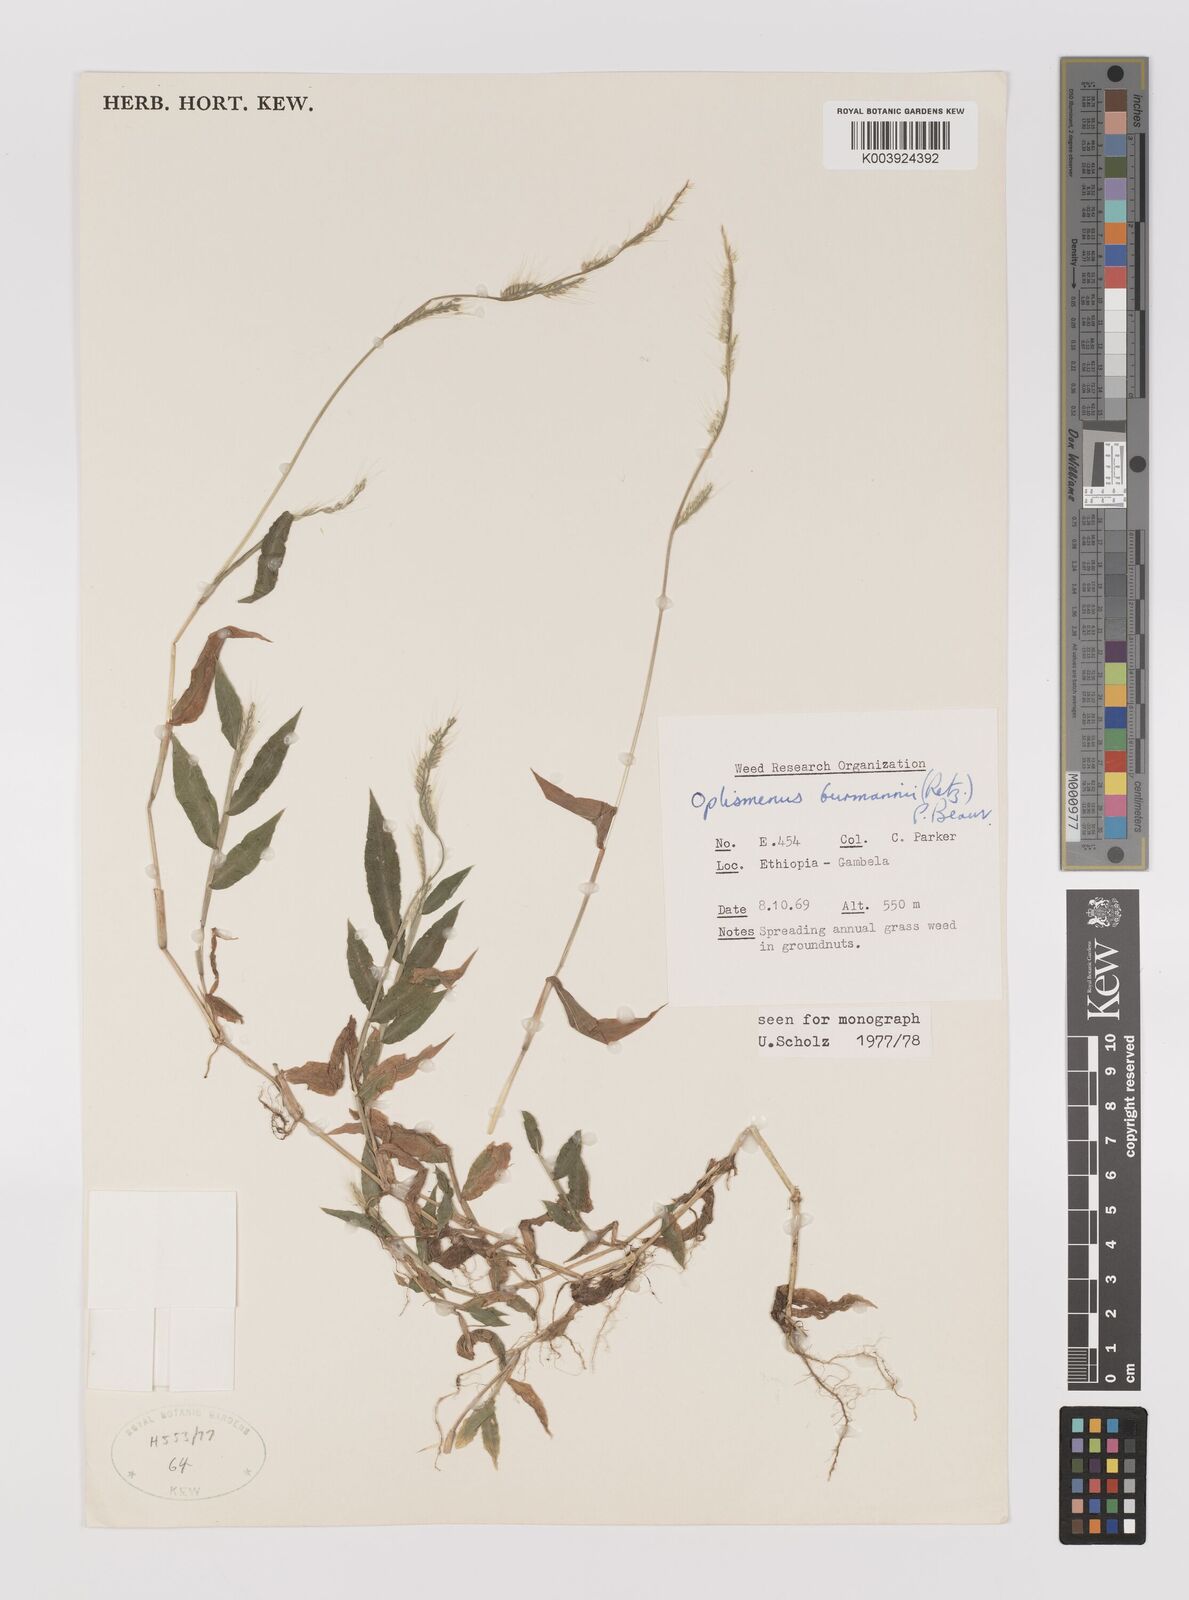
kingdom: Plantae
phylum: Tracheophyta
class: Liliopsida
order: Poales
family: Poaceae
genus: Oplismenus
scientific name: Oplismenus burmanni
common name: Burmann's basketgrass
